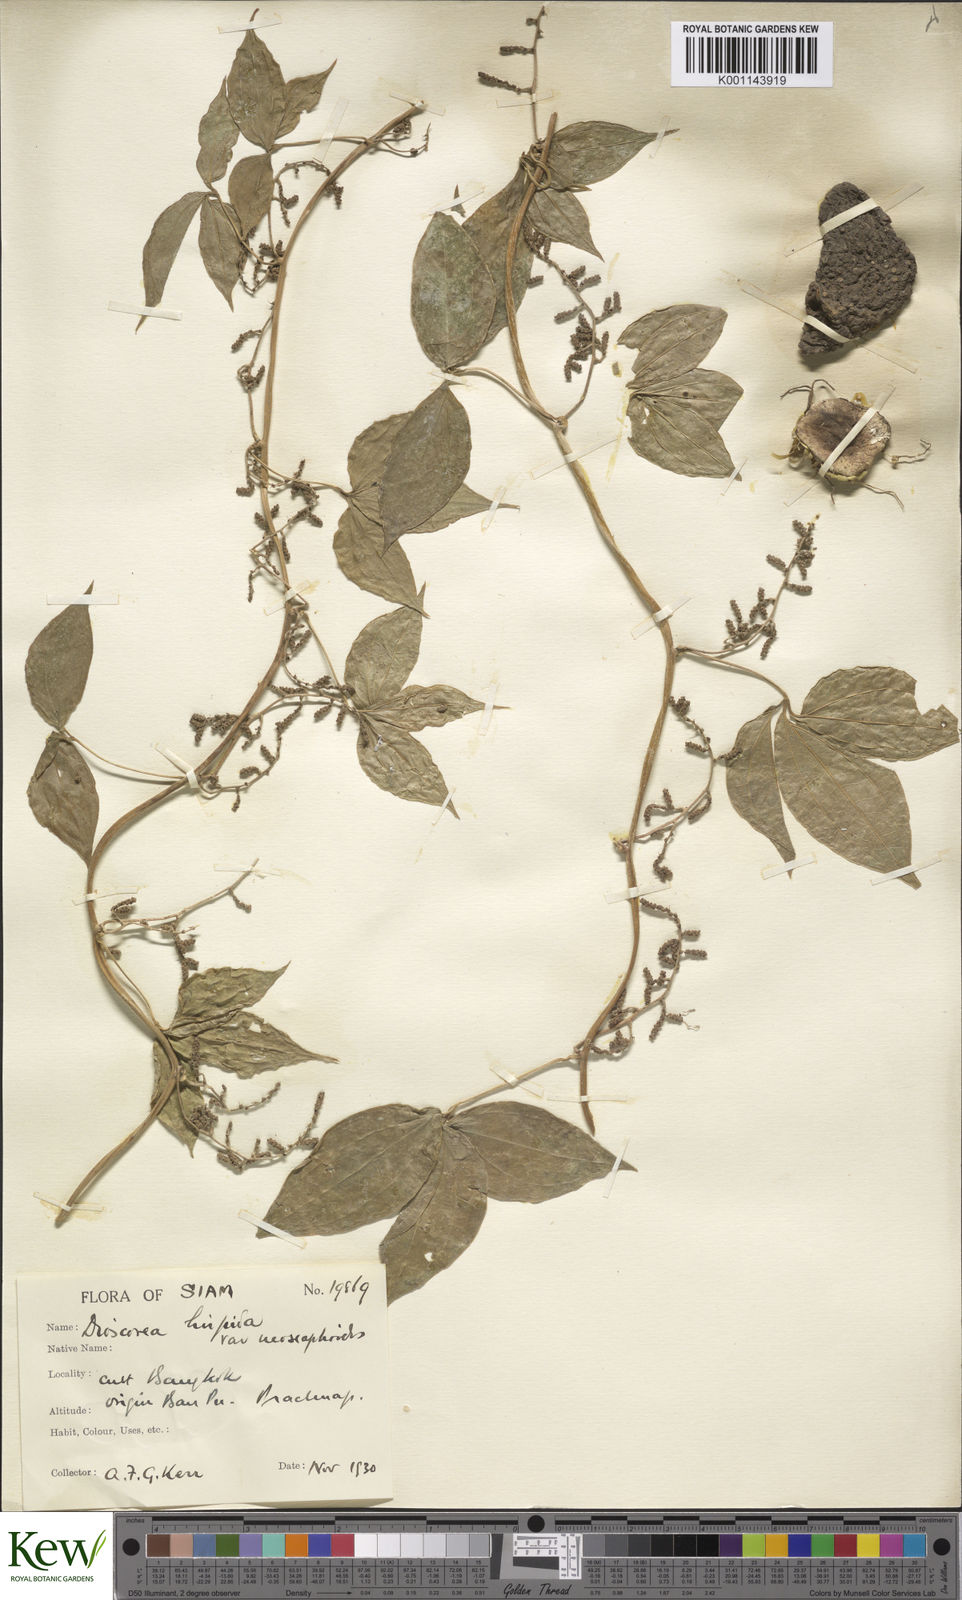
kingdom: Plantae
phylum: Tracheophyta
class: Liliopsida
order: Dioscoreales
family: Dioscoreaceae
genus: Dioscorea
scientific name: Dioscorea hispida
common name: Asiatic bitter yam
